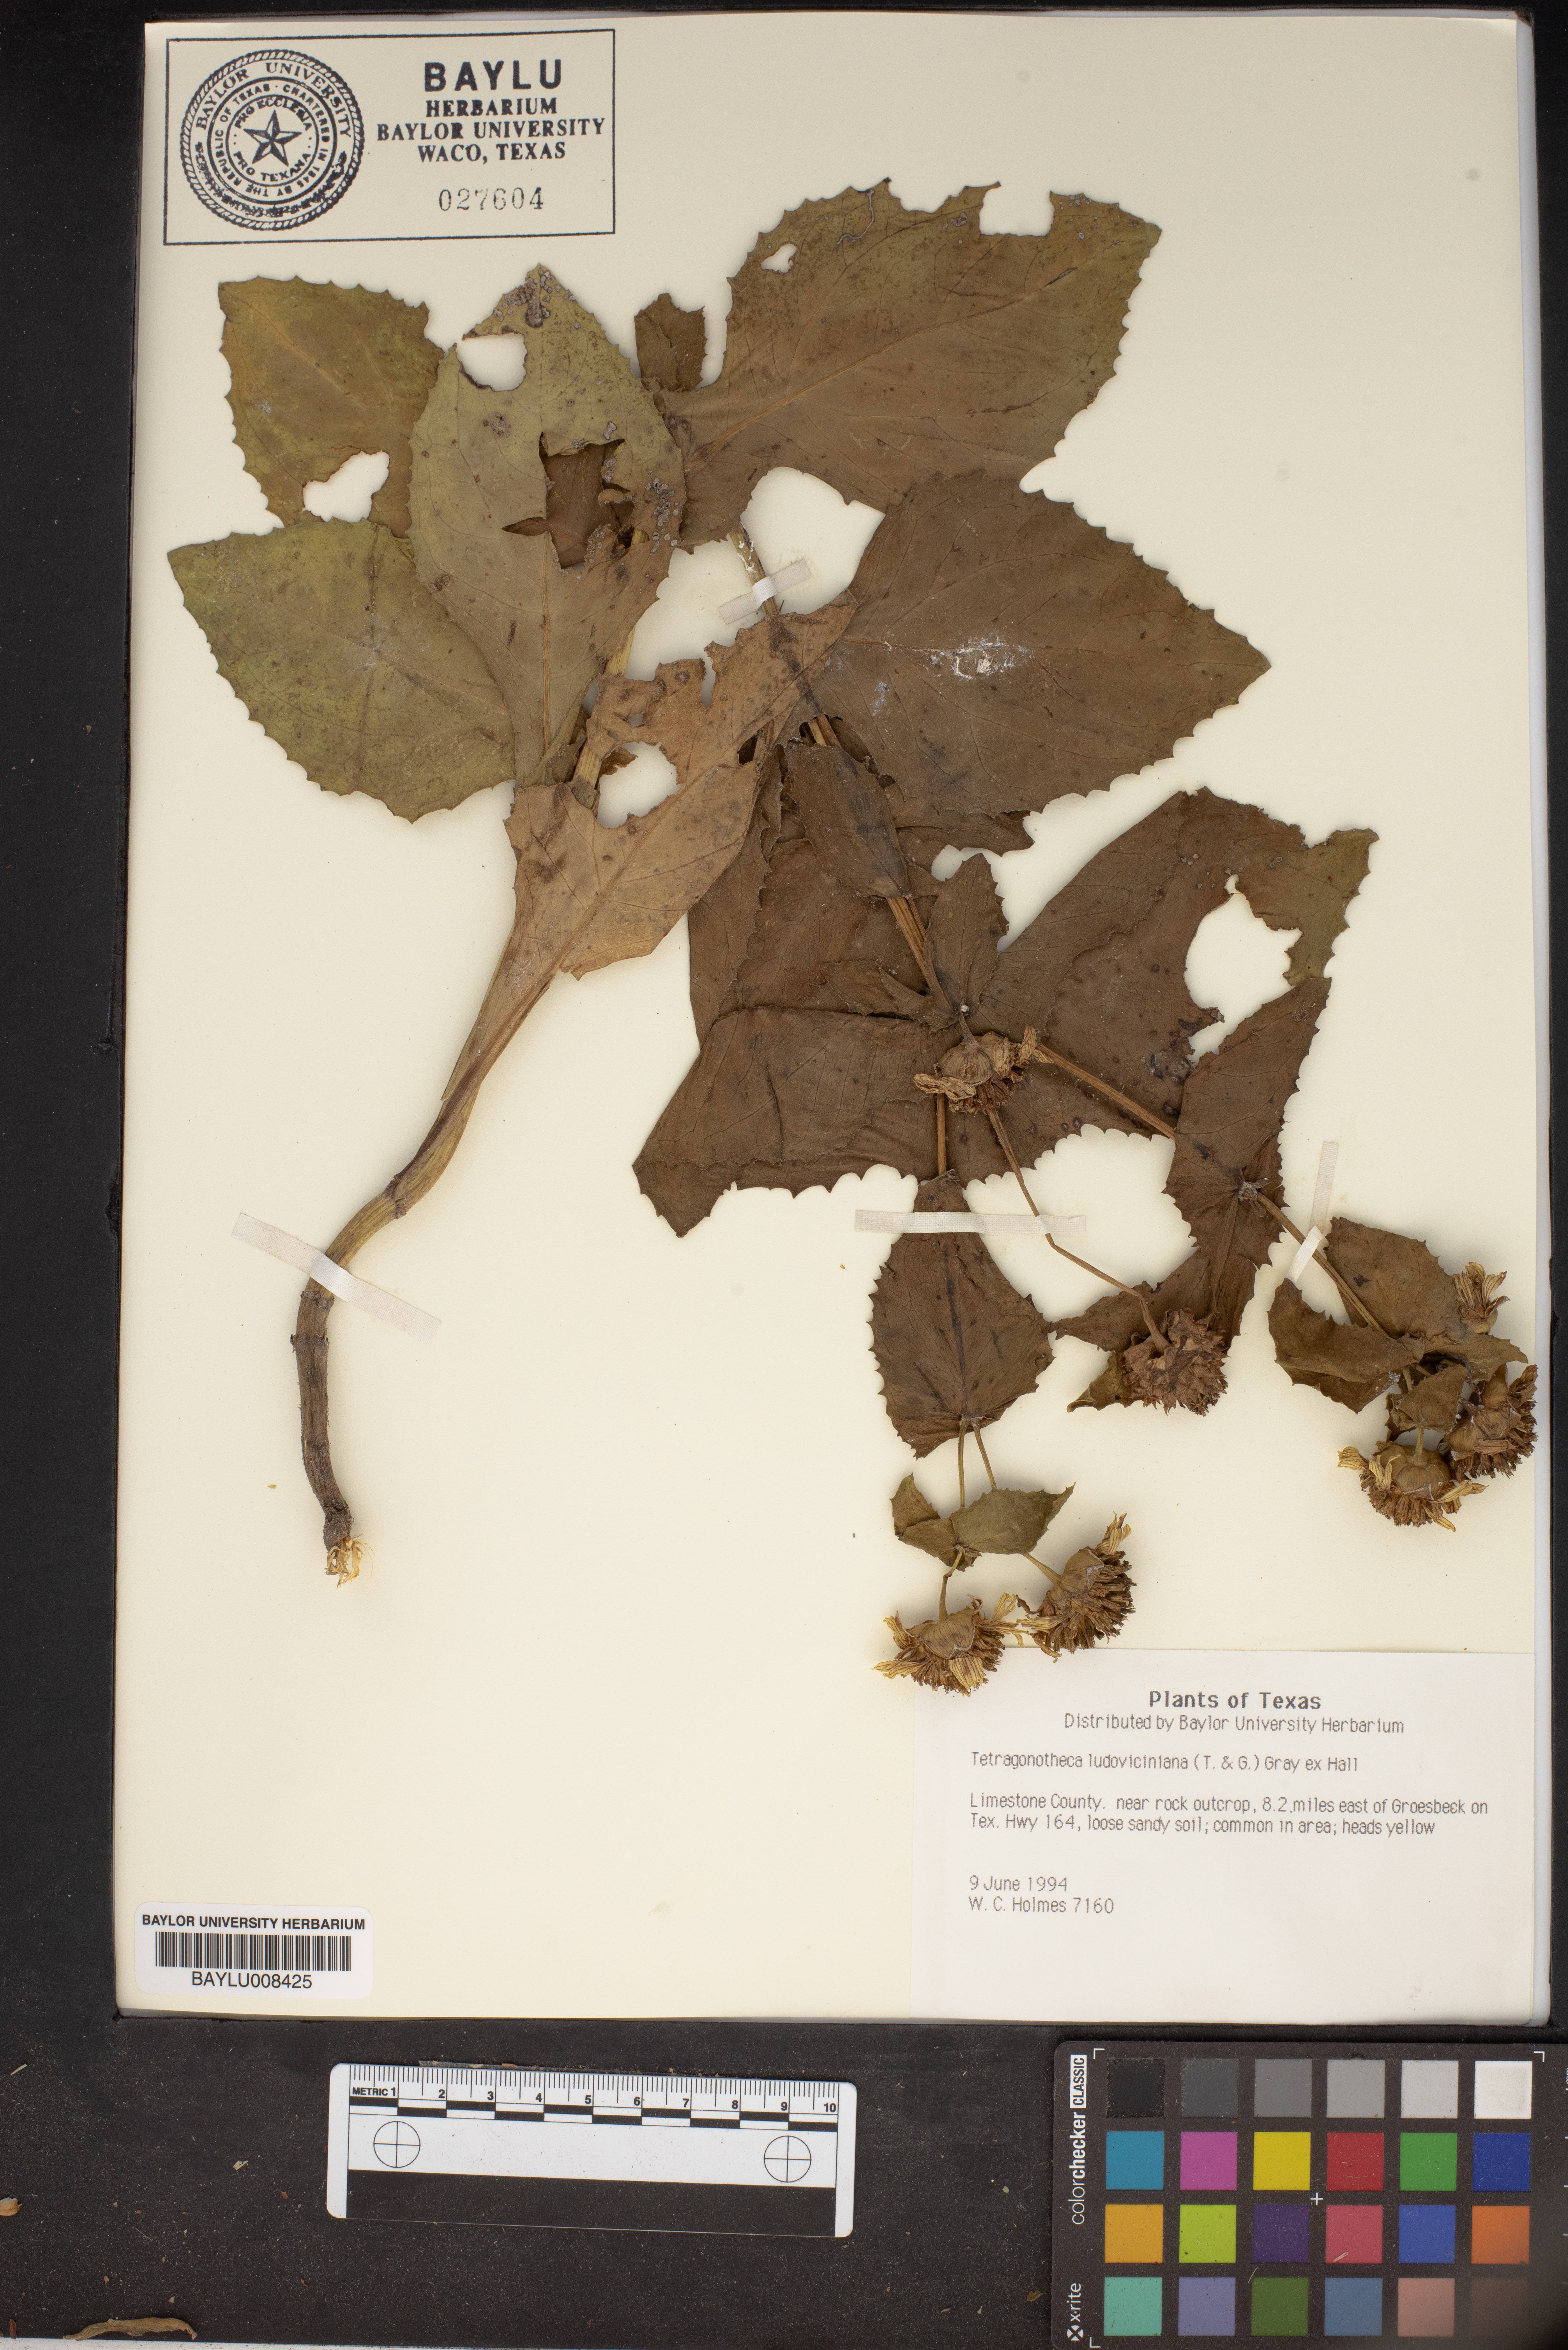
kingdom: Plantae
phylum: Tracheophyta
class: Magnoliopsida
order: Asterales
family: Asteraceae
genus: Tetragonotheca
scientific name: Tetragonotheca ludoviciana
